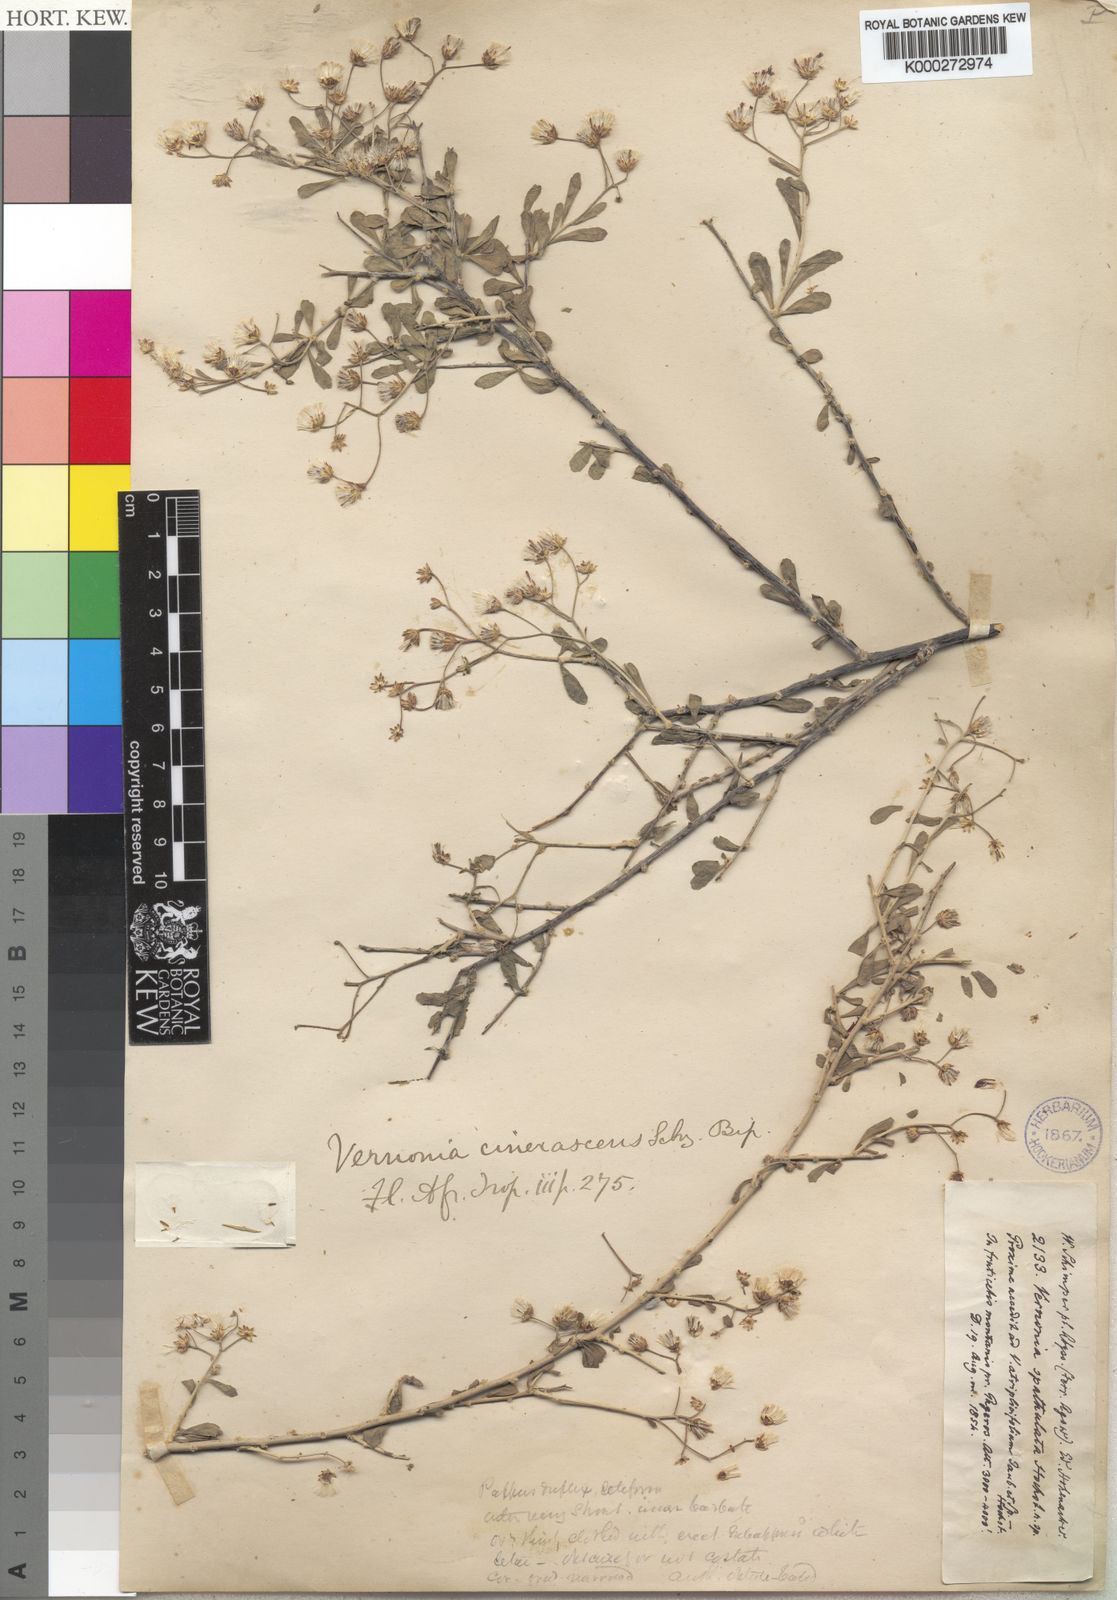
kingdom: Plantae
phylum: Tracheophyta
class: Magnoliopsida
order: Asterales
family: Asteraceae
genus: Orbivestus
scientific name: Orbivestus cinerascens
